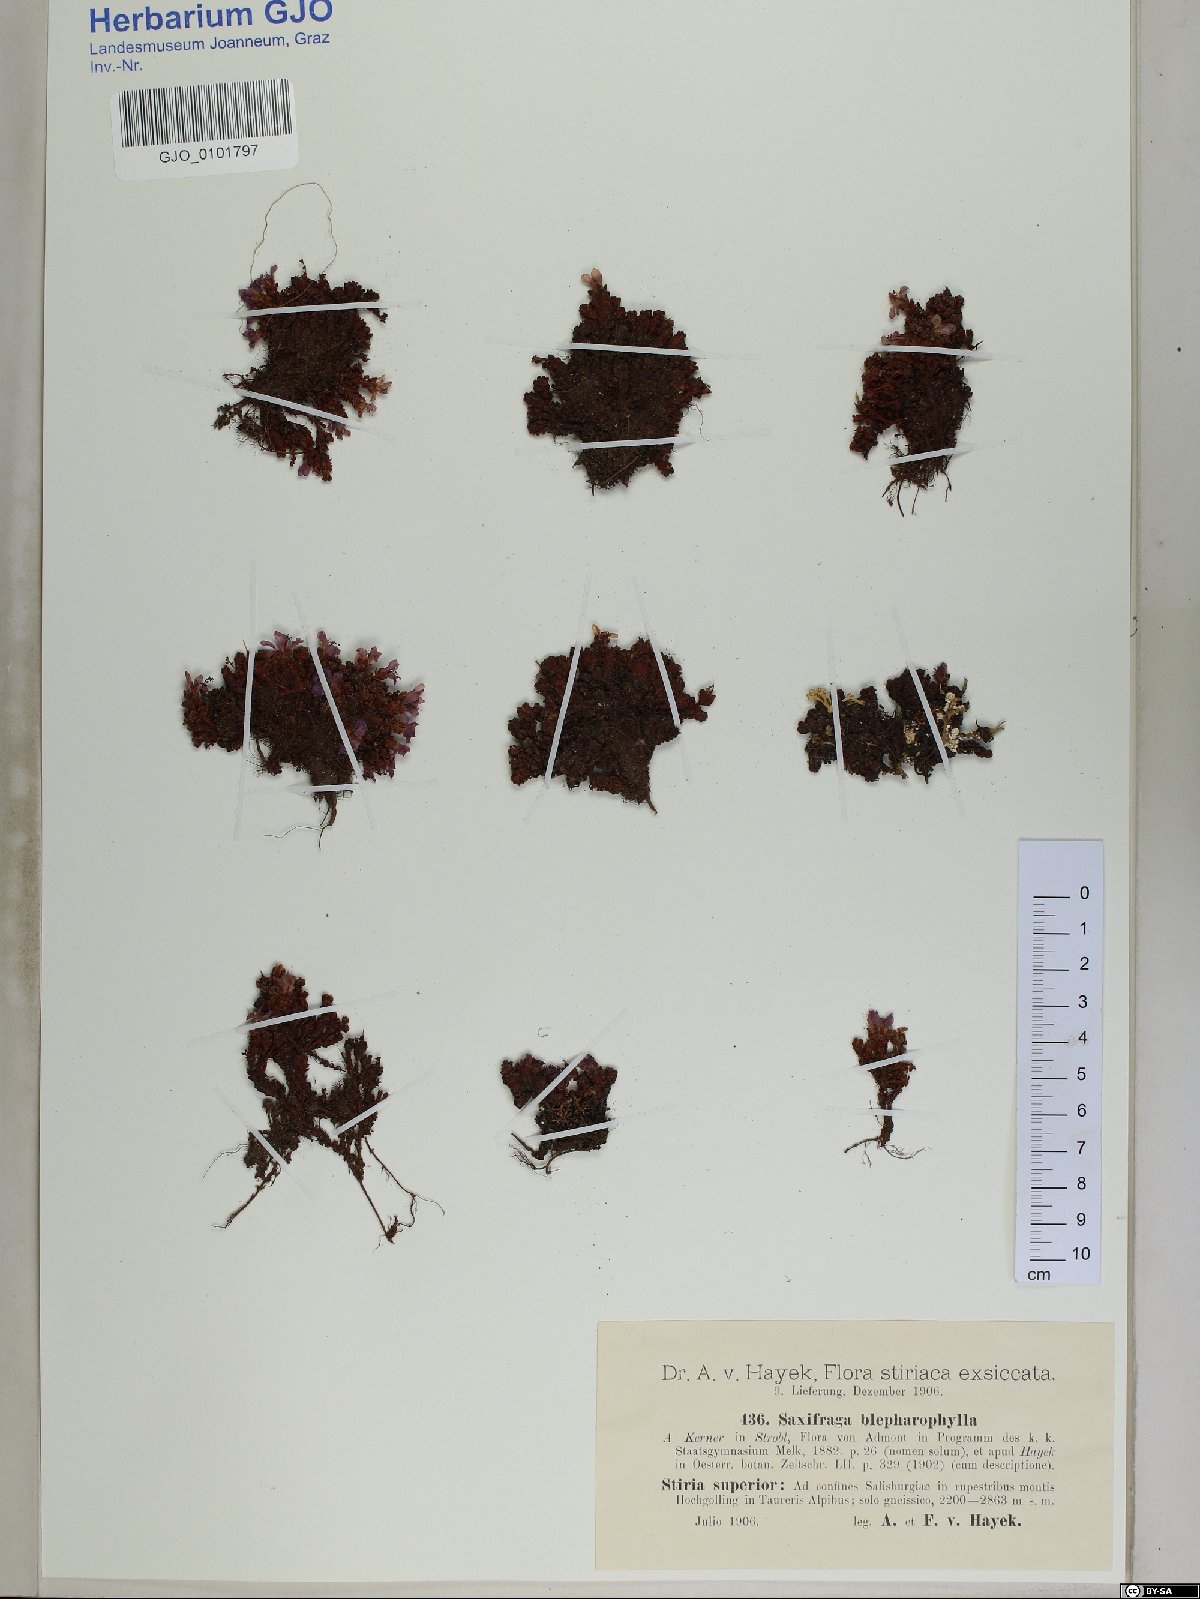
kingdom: Plantae
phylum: Tracheophyta
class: Magnoliopsida
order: Saxifragales
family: Saxifragaceae
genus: Saxifraga
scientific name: Saxifraga oppositifolia
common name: Purple saxifrage
